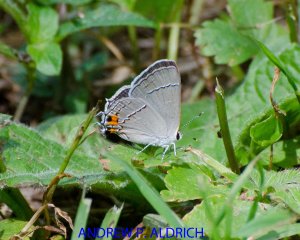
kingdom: Animalia
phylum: Arthropoda
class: Insecta
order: Lepidoptera
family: Lycaenidae
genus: Strymon
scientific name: Strymon melinus
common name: Gray Hairstreak
